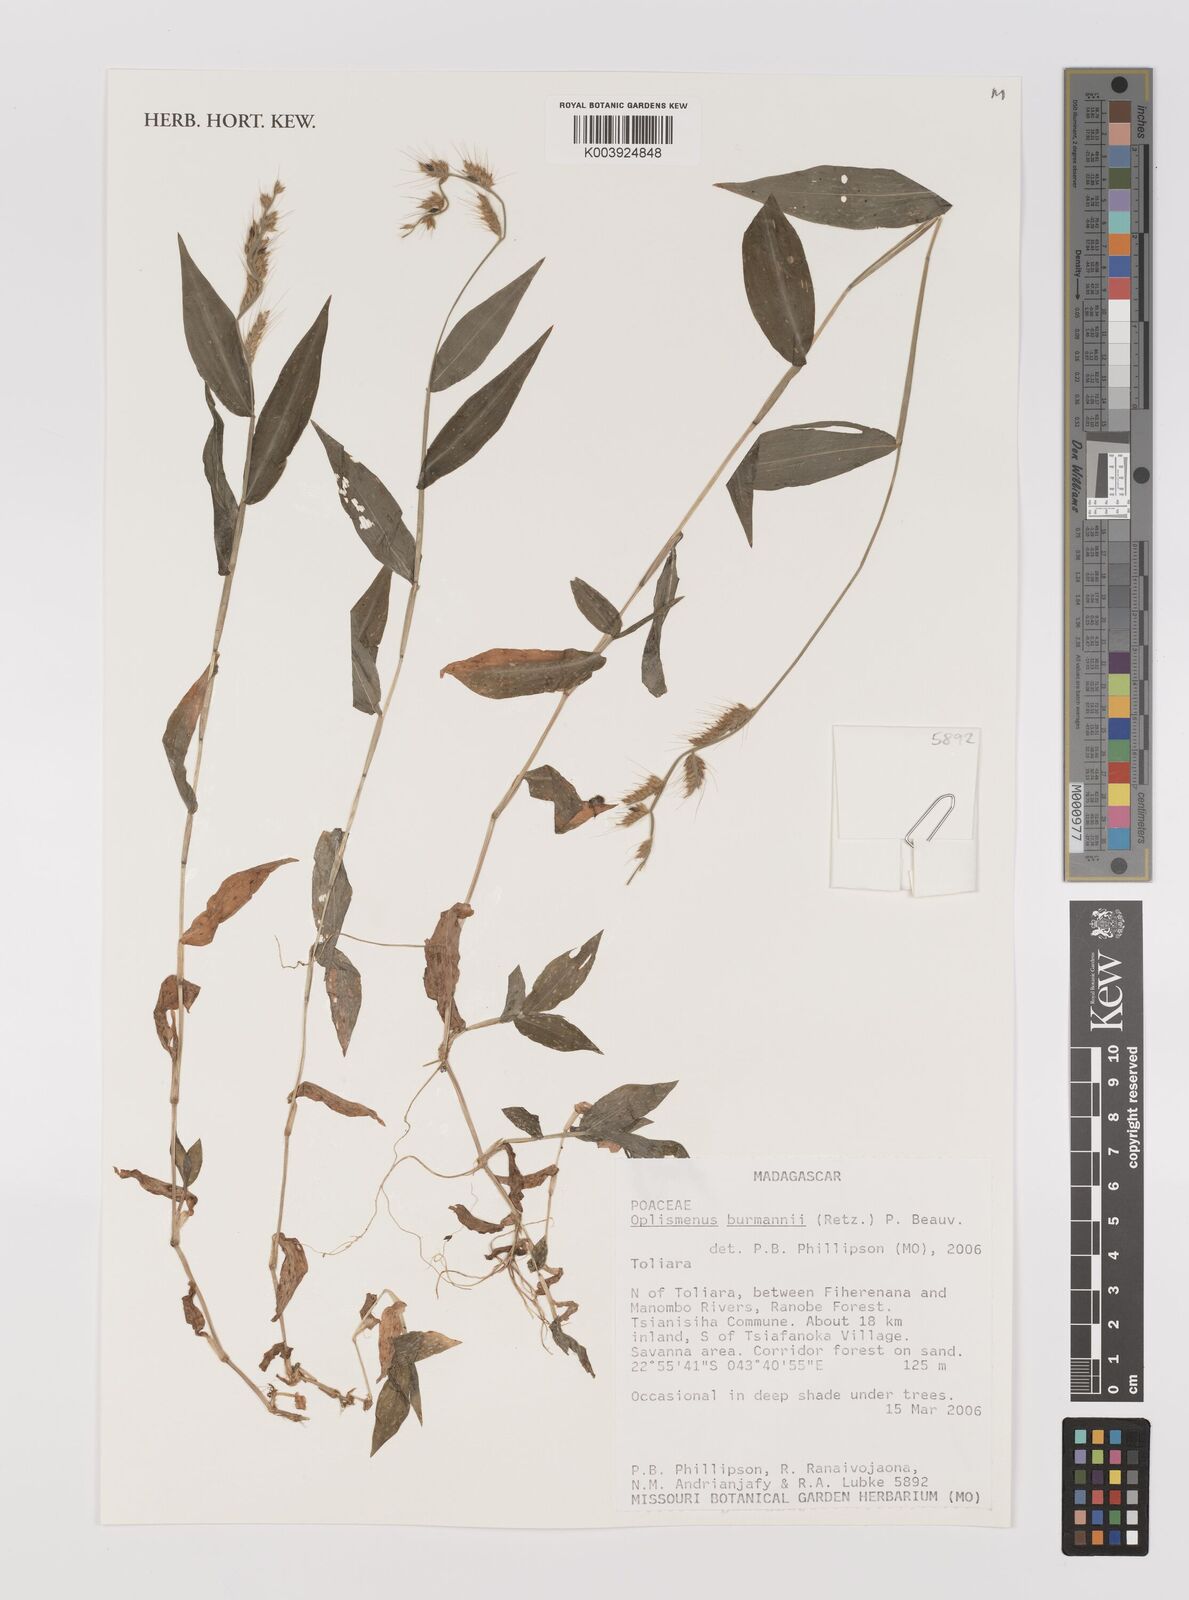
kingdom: Plantae
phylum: Tracheophyta
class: Liliopsida
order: Poales
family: Poaceae
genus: Oplismenus
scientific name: Oplismenus burmanni
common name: Burmann's basketgrass
